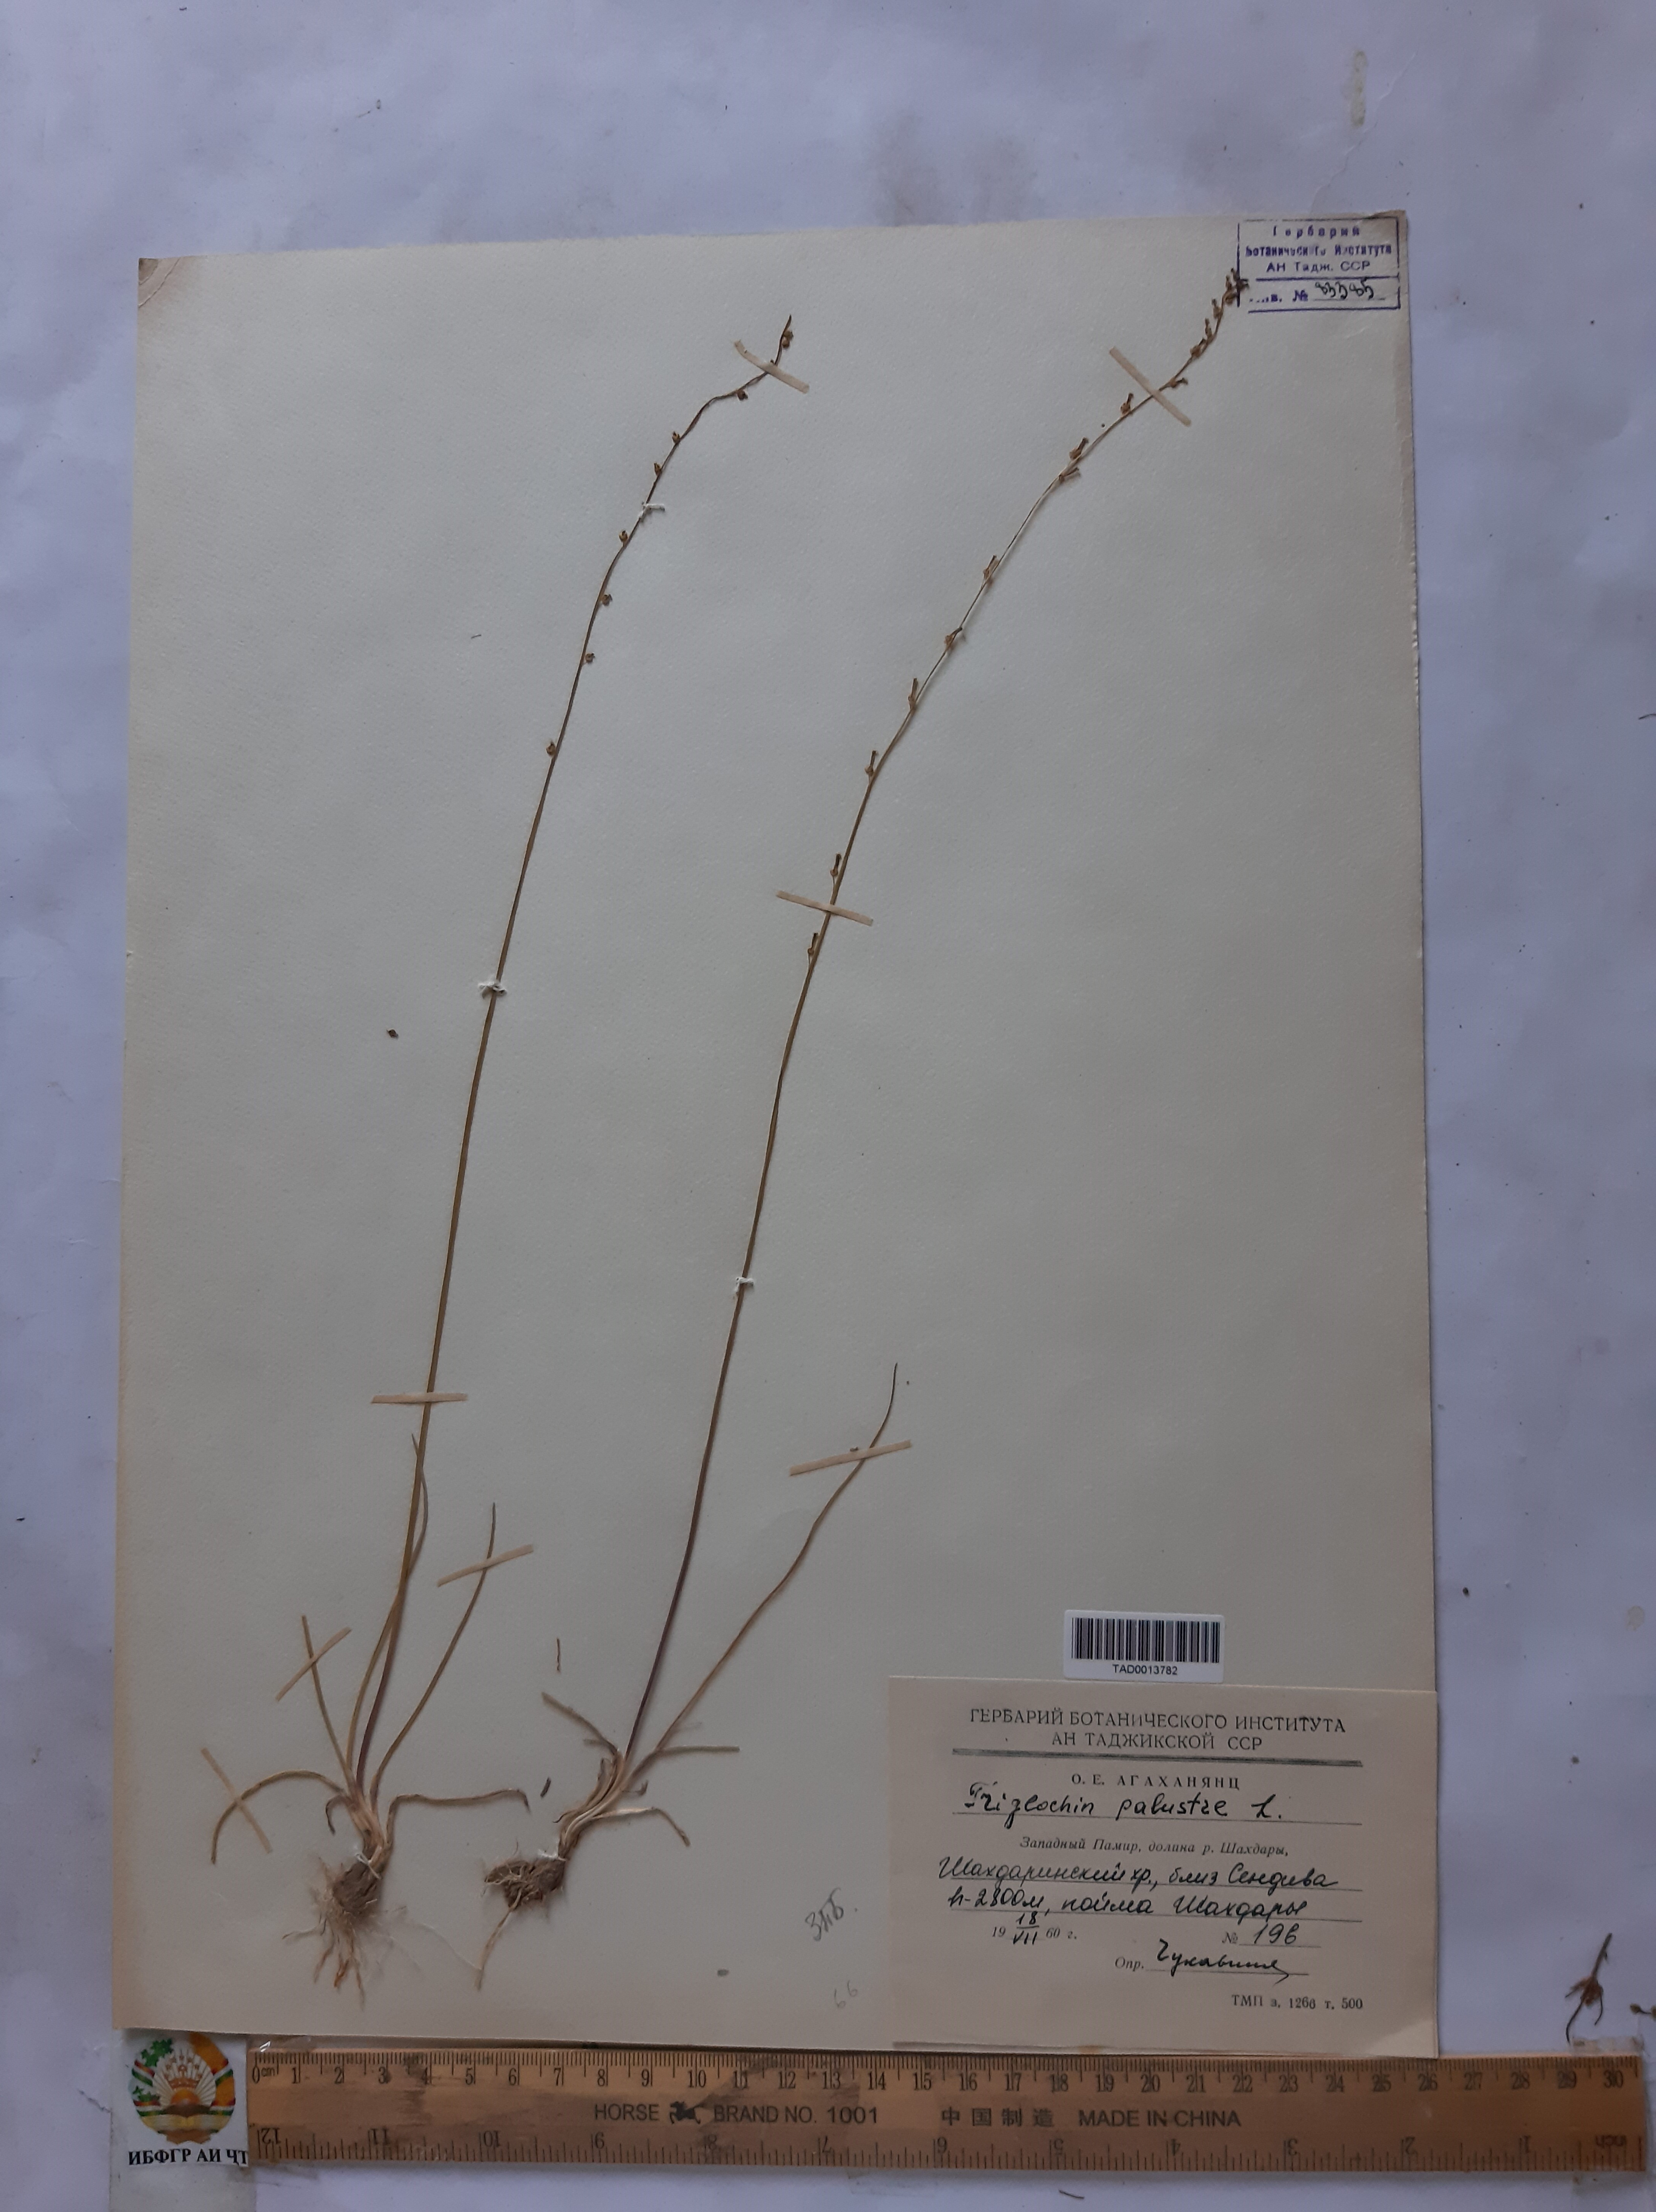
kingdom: Plantae
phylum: Tracheophyta
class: Liliopsida
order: Alismatales
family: Juncaginaceae
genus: Triglochin
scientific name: Triglochin palustris
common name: Marsh arrowgrass
